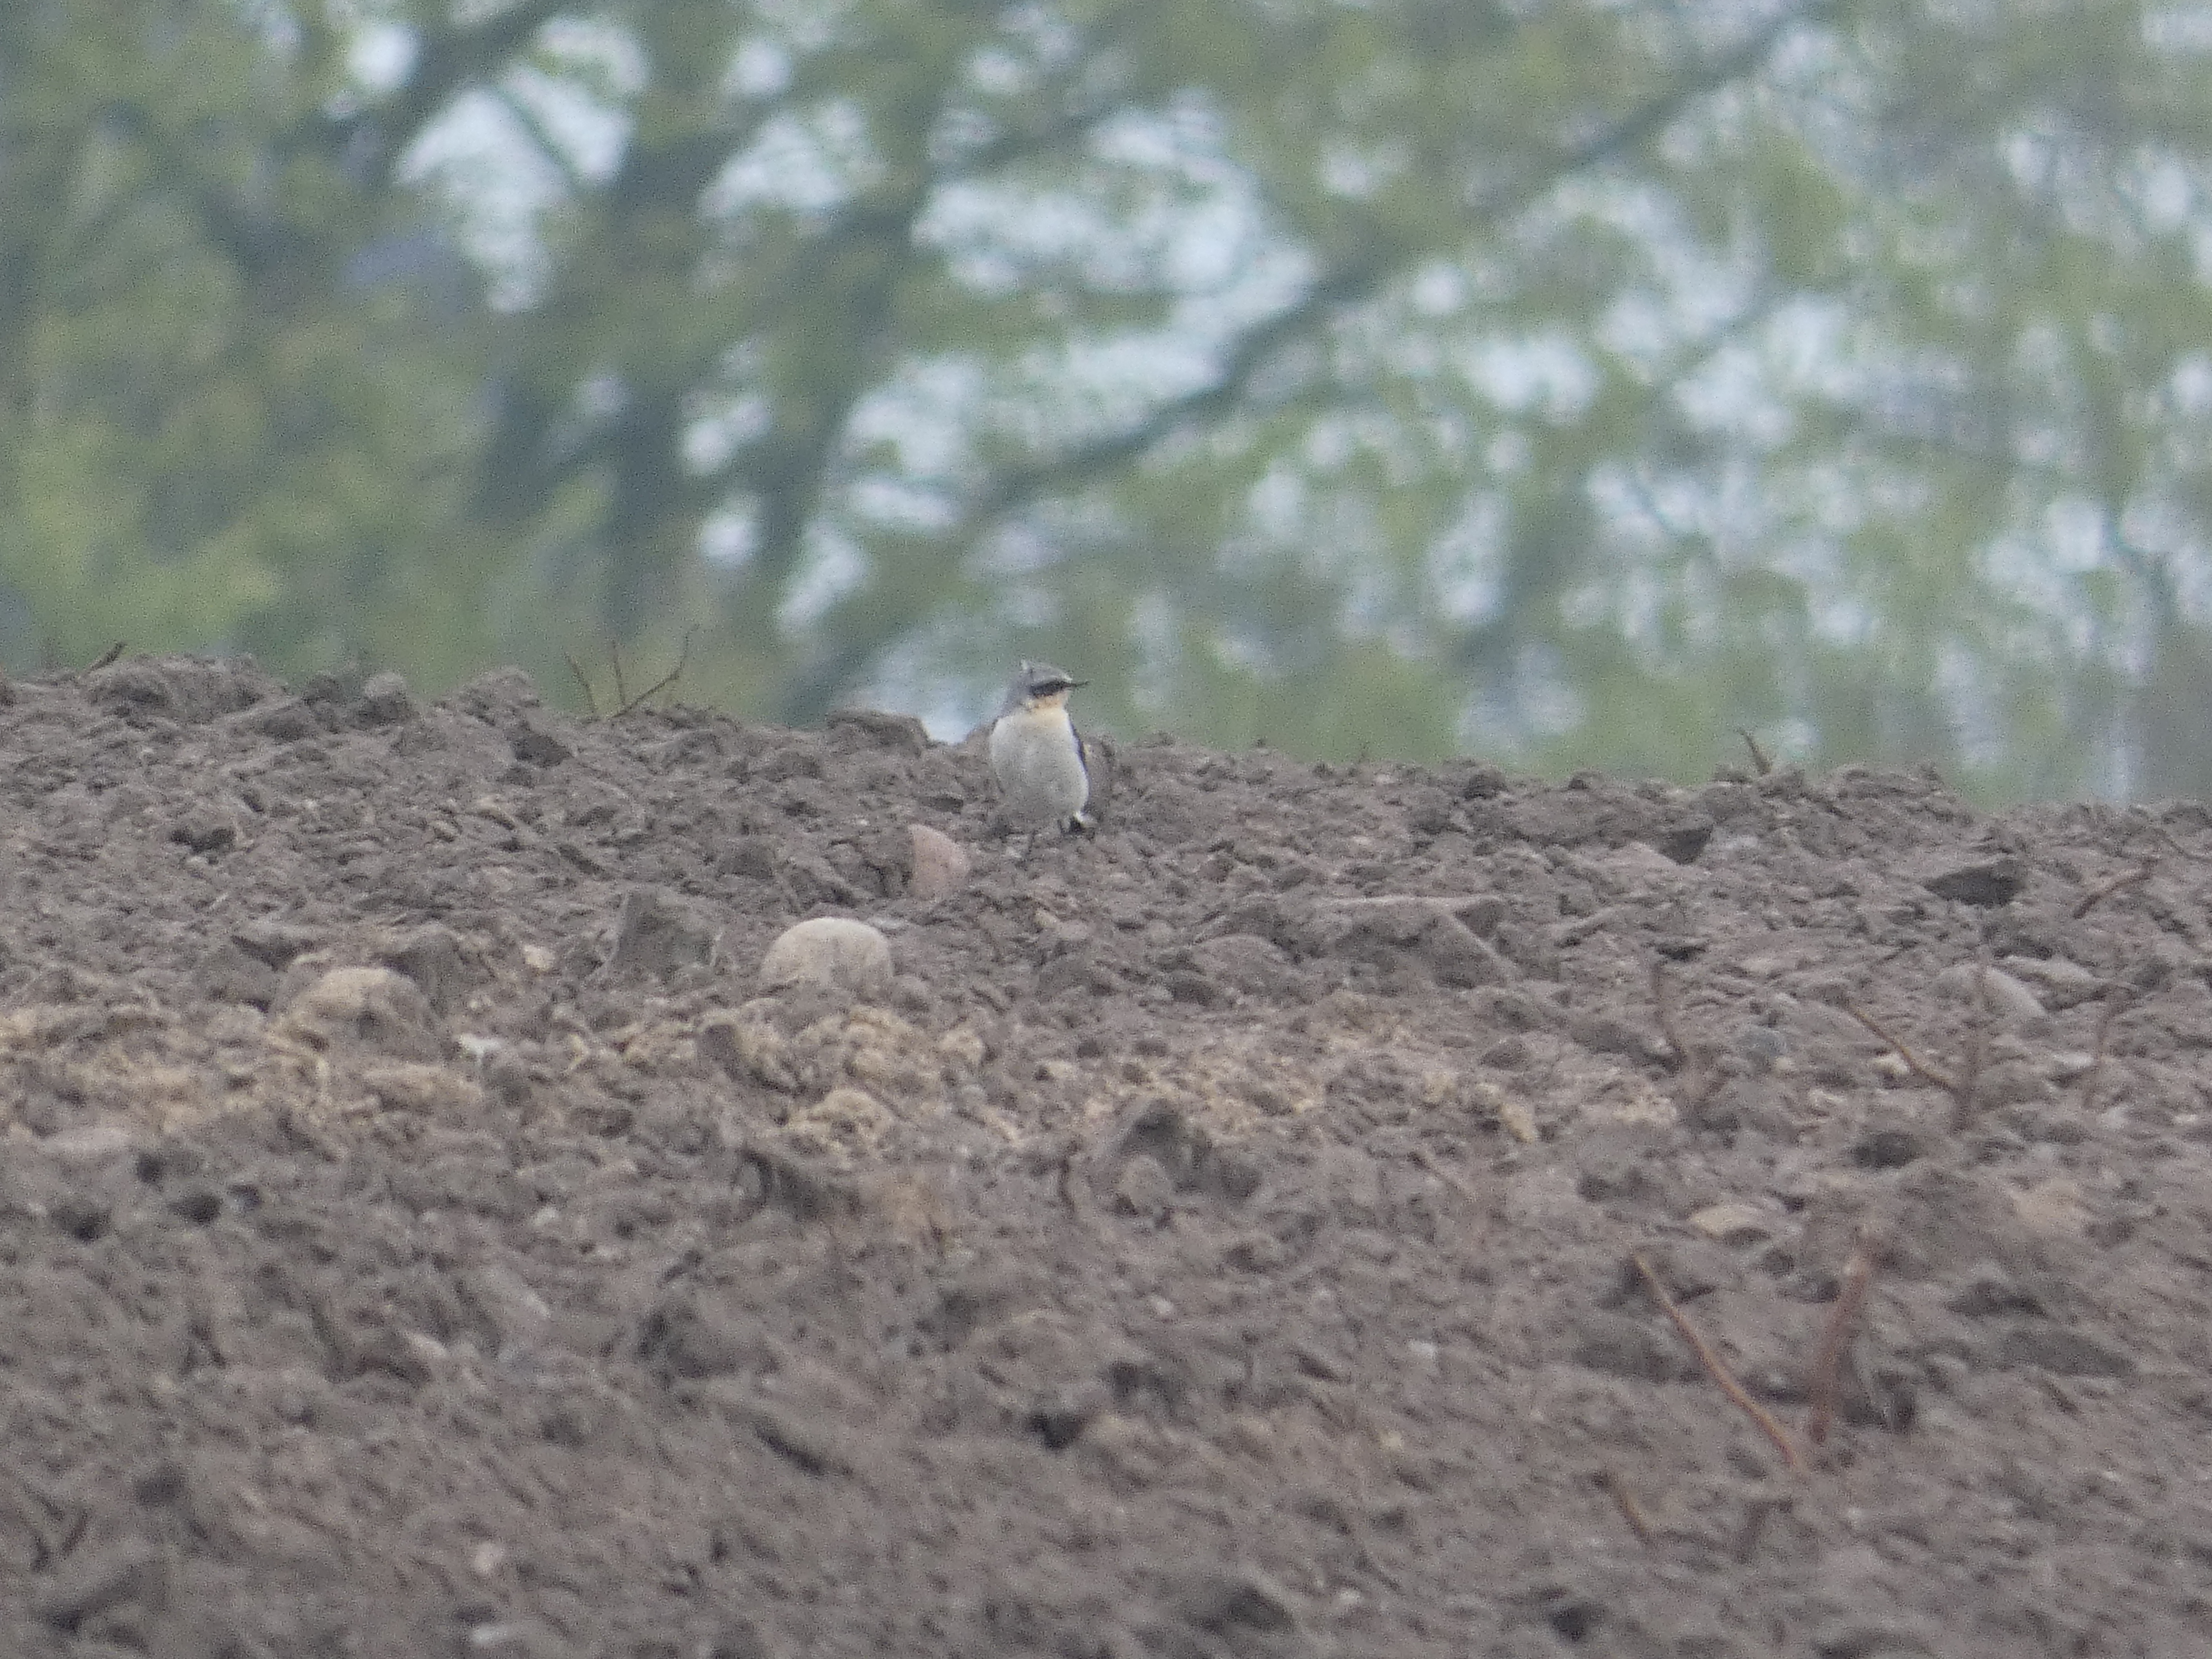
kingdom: Animalia
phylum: Chordata
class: Aves
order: Passeriformes
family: Muscicapidae
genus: Oenanthe
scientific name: Oenanthe oenanthe
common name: Stenpikker
